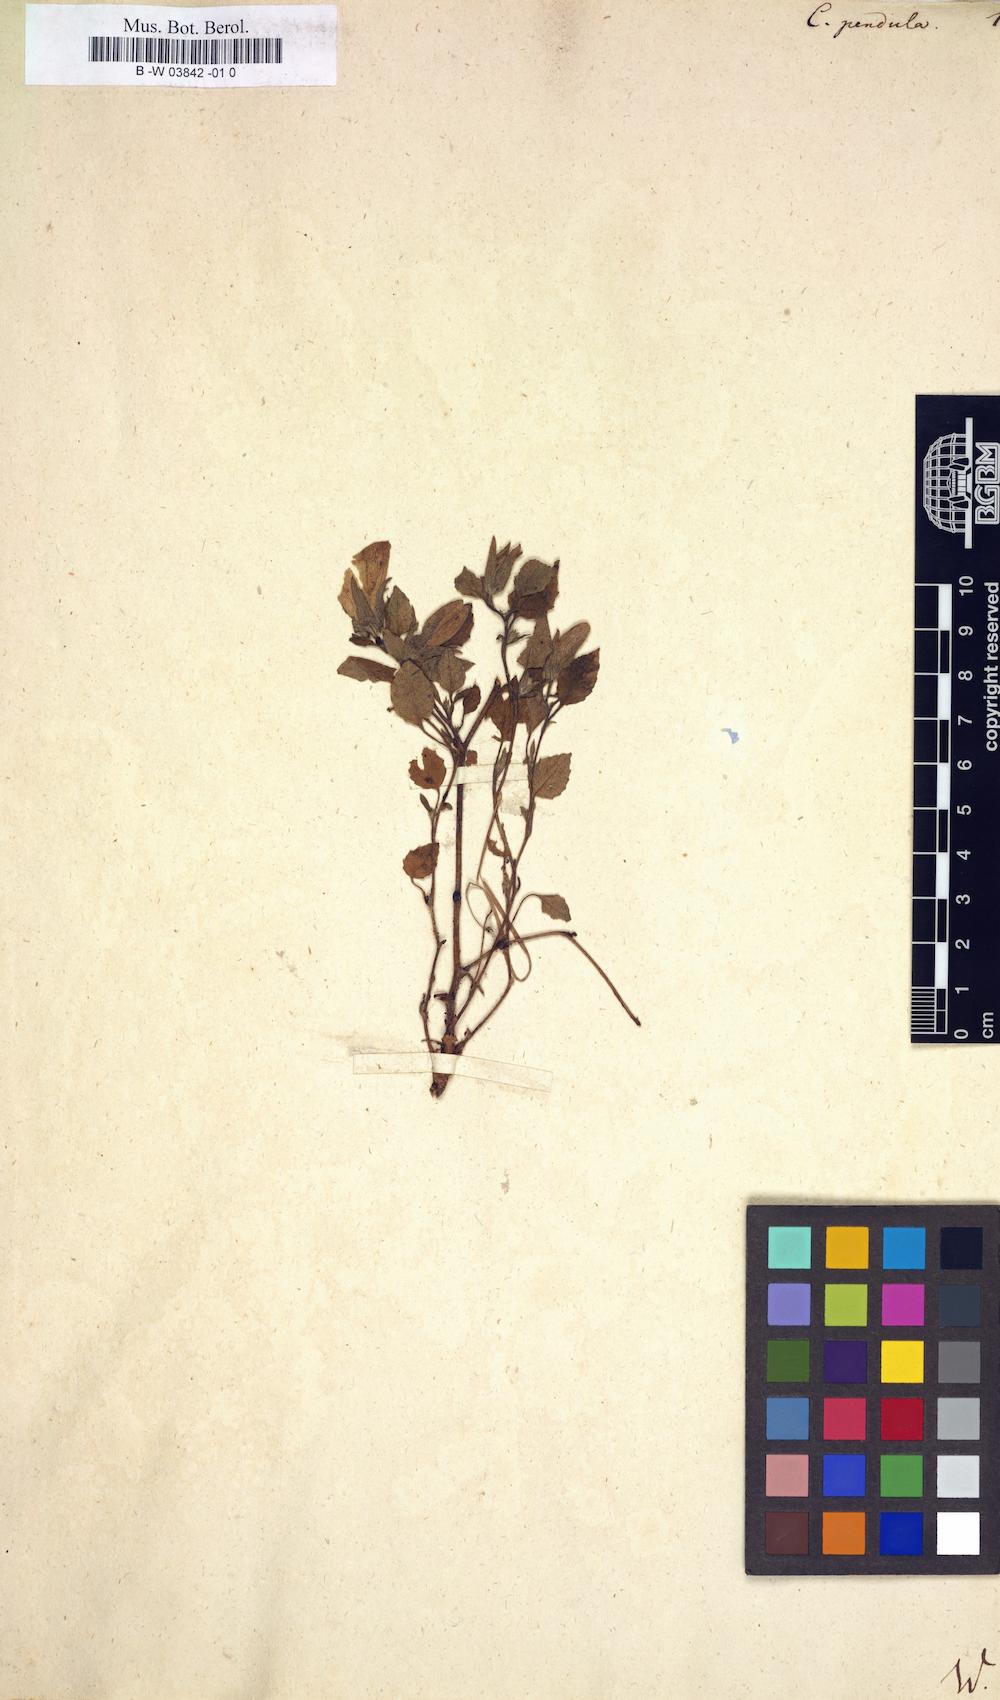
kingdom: Plantae
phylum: Tracheophyta
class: Magnoliopsida
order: Asterales
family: Campanulaceae
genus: Campanula
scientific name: Campanula pendula
